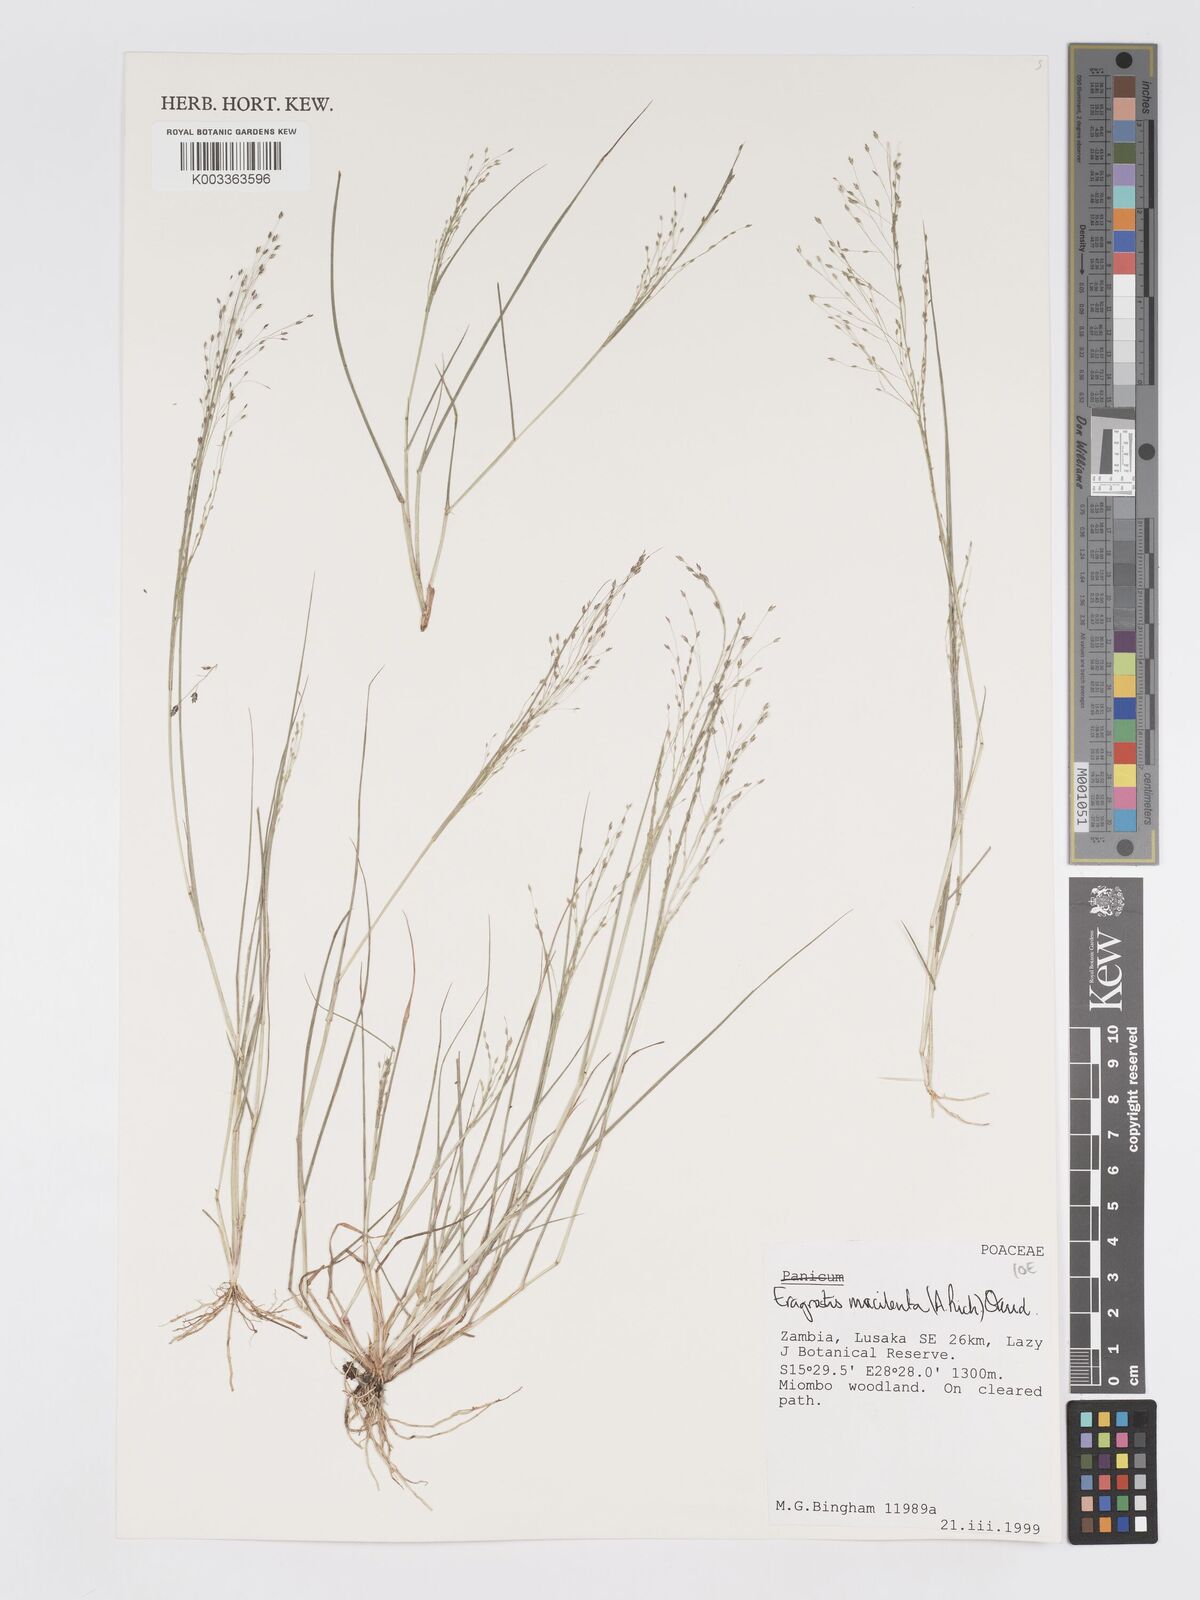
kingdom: Plantae
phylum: Tracheophyta
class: Liliopsida
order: Poales
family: Poaceae
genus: Eragrostis
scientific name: Eragrostis macilenta
